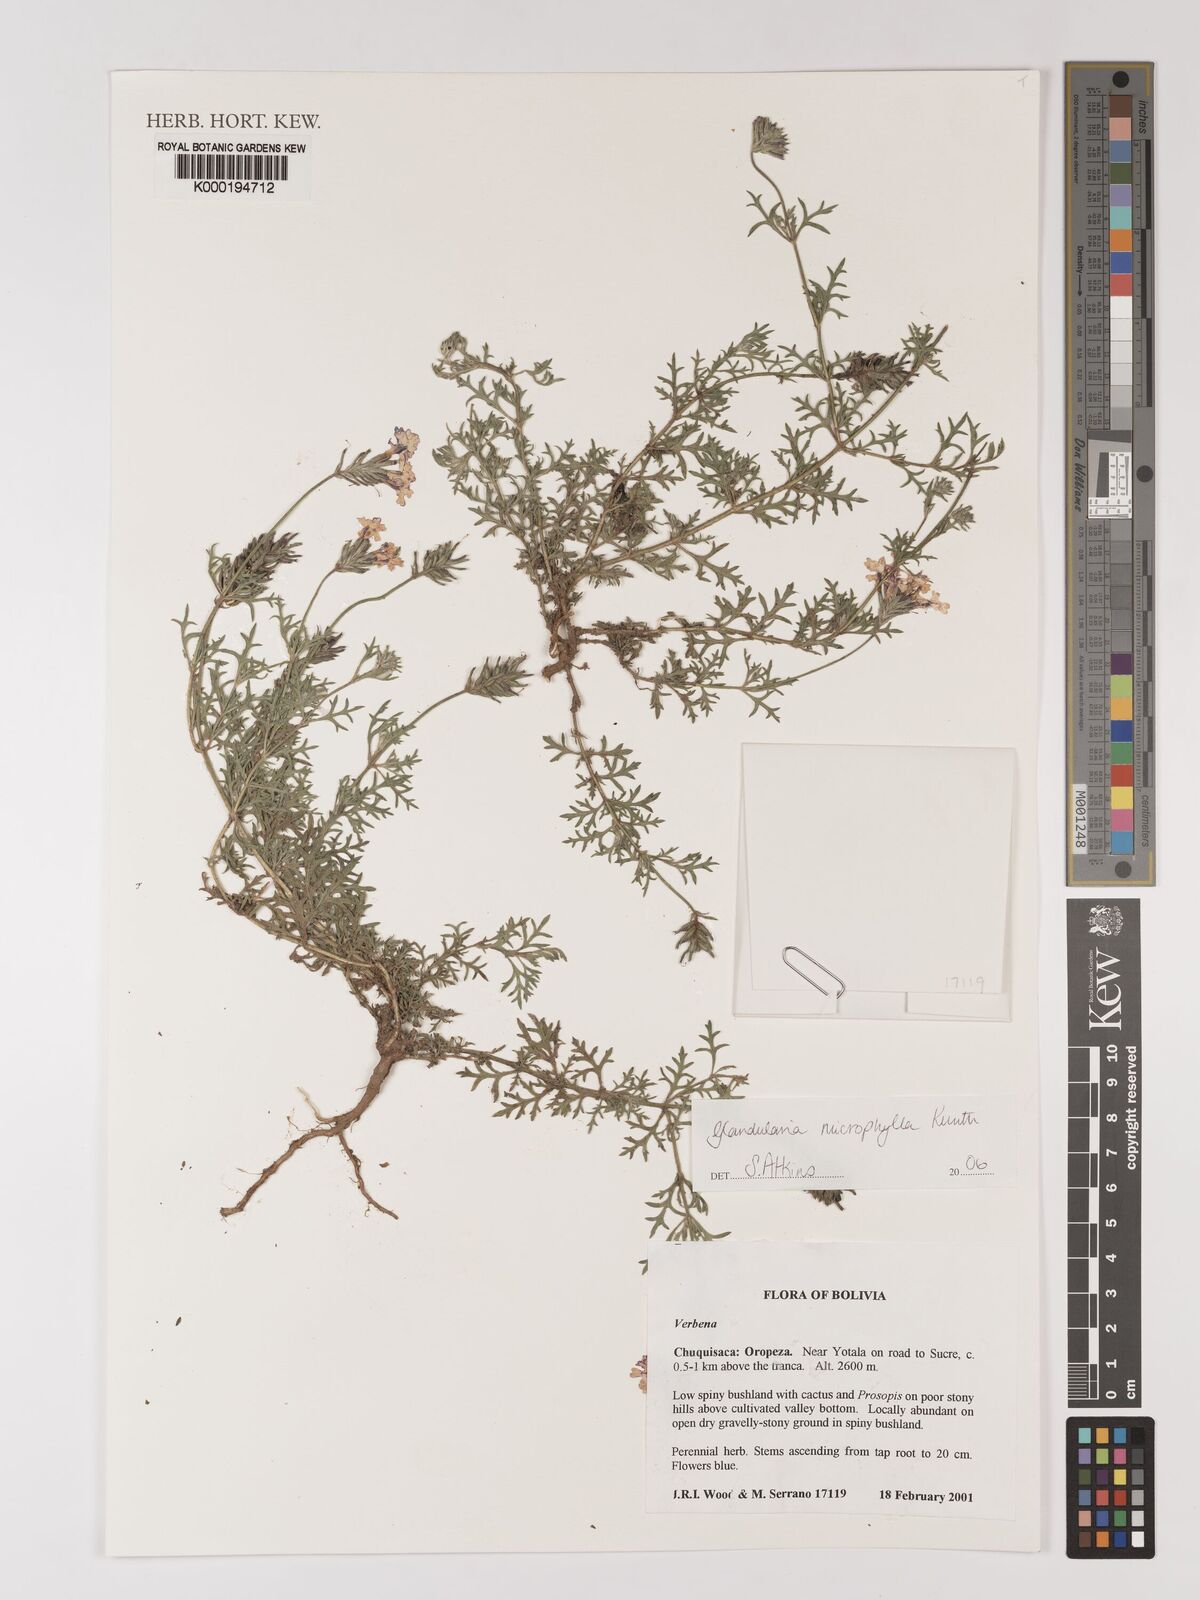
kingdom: Plantae
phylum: Tracheophyta
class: Magnoliopsida
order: Lamiales
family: Verbenaceae
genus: Verbena
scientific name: Verbena microphylla
